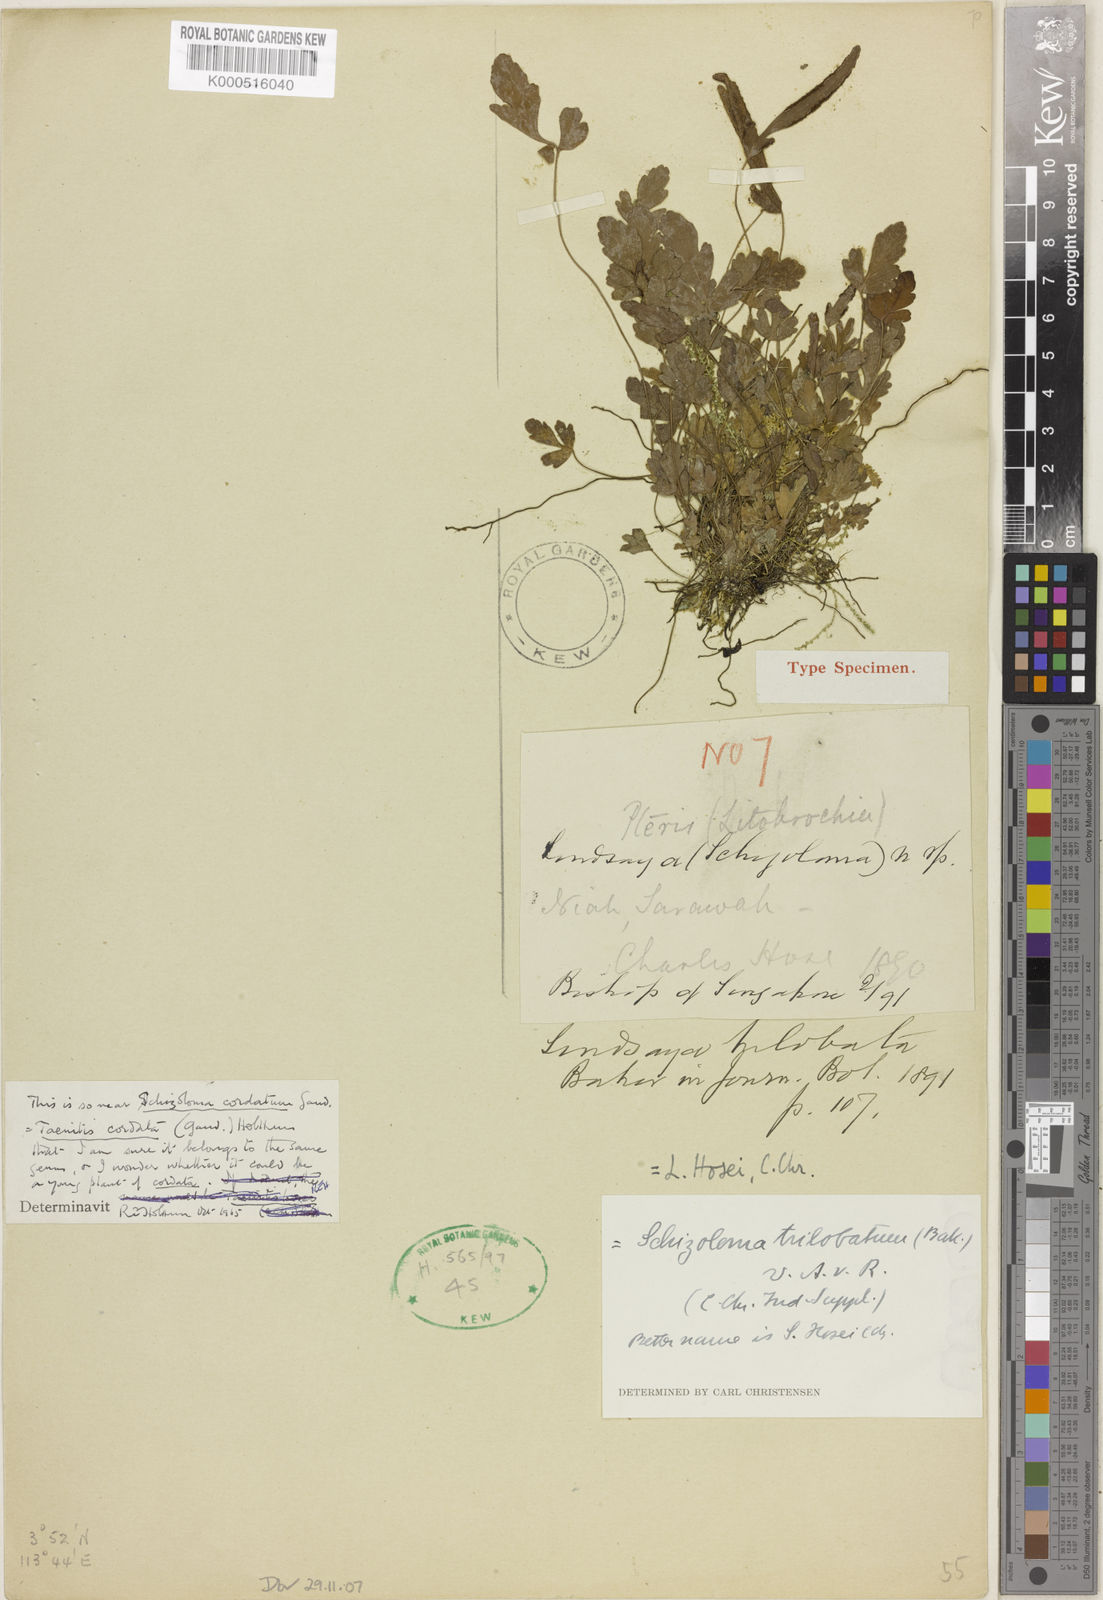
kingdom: Plantae
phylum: Tracheophyta
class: Polypodiopsida
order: Polypodiales
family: Pteridaceae
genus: Taenitis
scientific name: Taenitis trilobata
